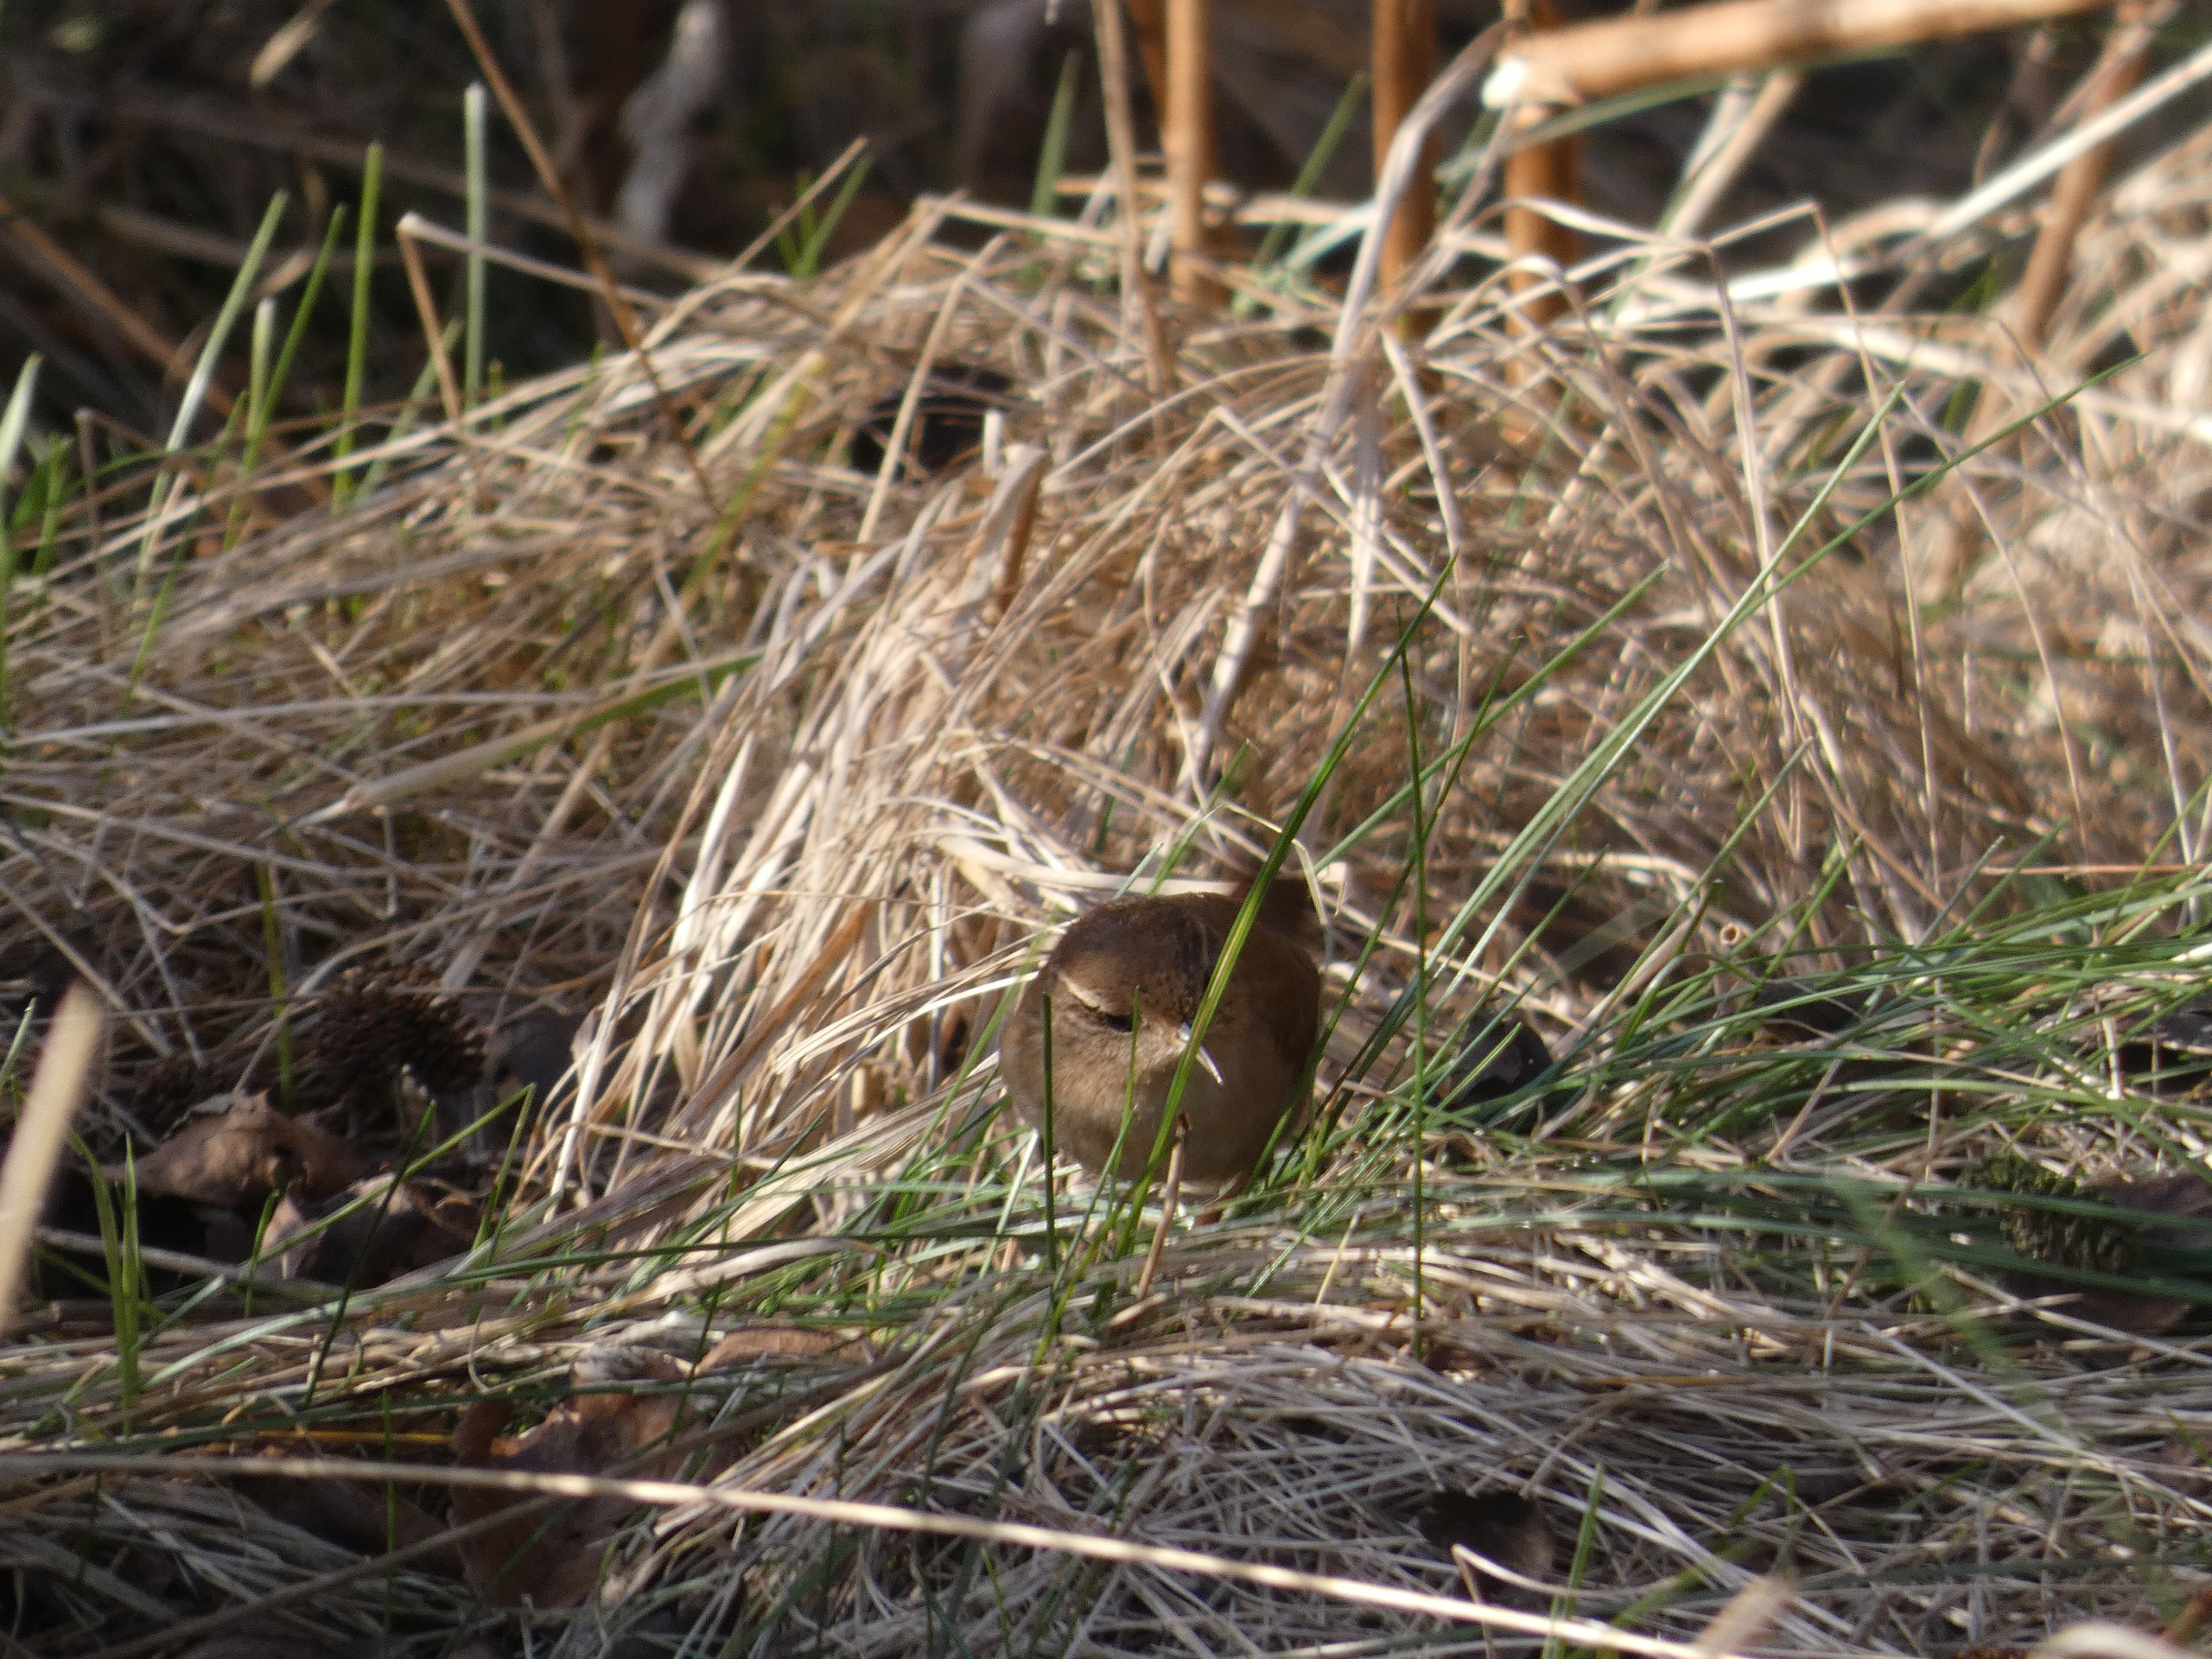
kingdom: Animalia
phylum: Chordata
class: Aves
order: Passeriformes
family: Troglodytidae
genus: Troglodytes
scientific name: Troglodytes troglodytes
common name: Gærdesmutte
